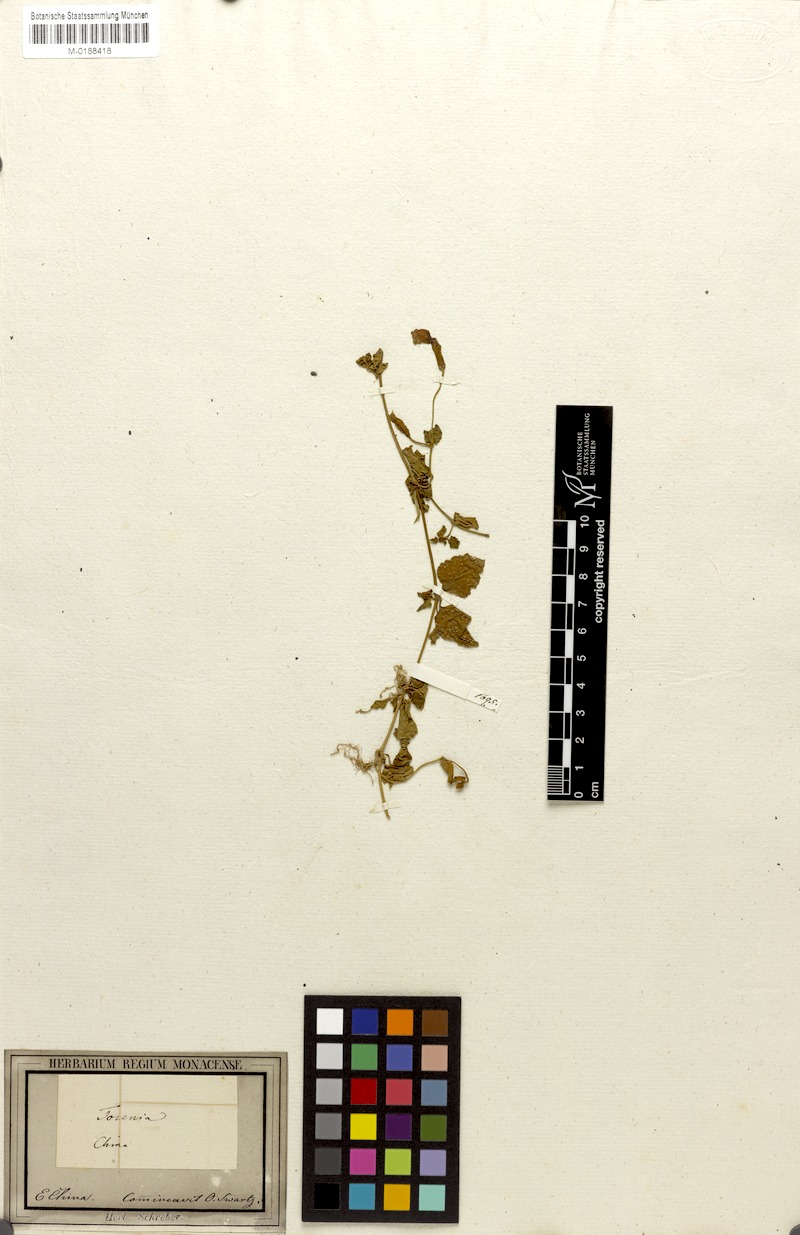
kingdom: Plantae
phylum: Tracheophyta
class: Magnoliopsida
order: Lamiales
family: Linderniaceae
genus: Torenia
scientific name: Torenia asiatica
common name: Wishbone flower
